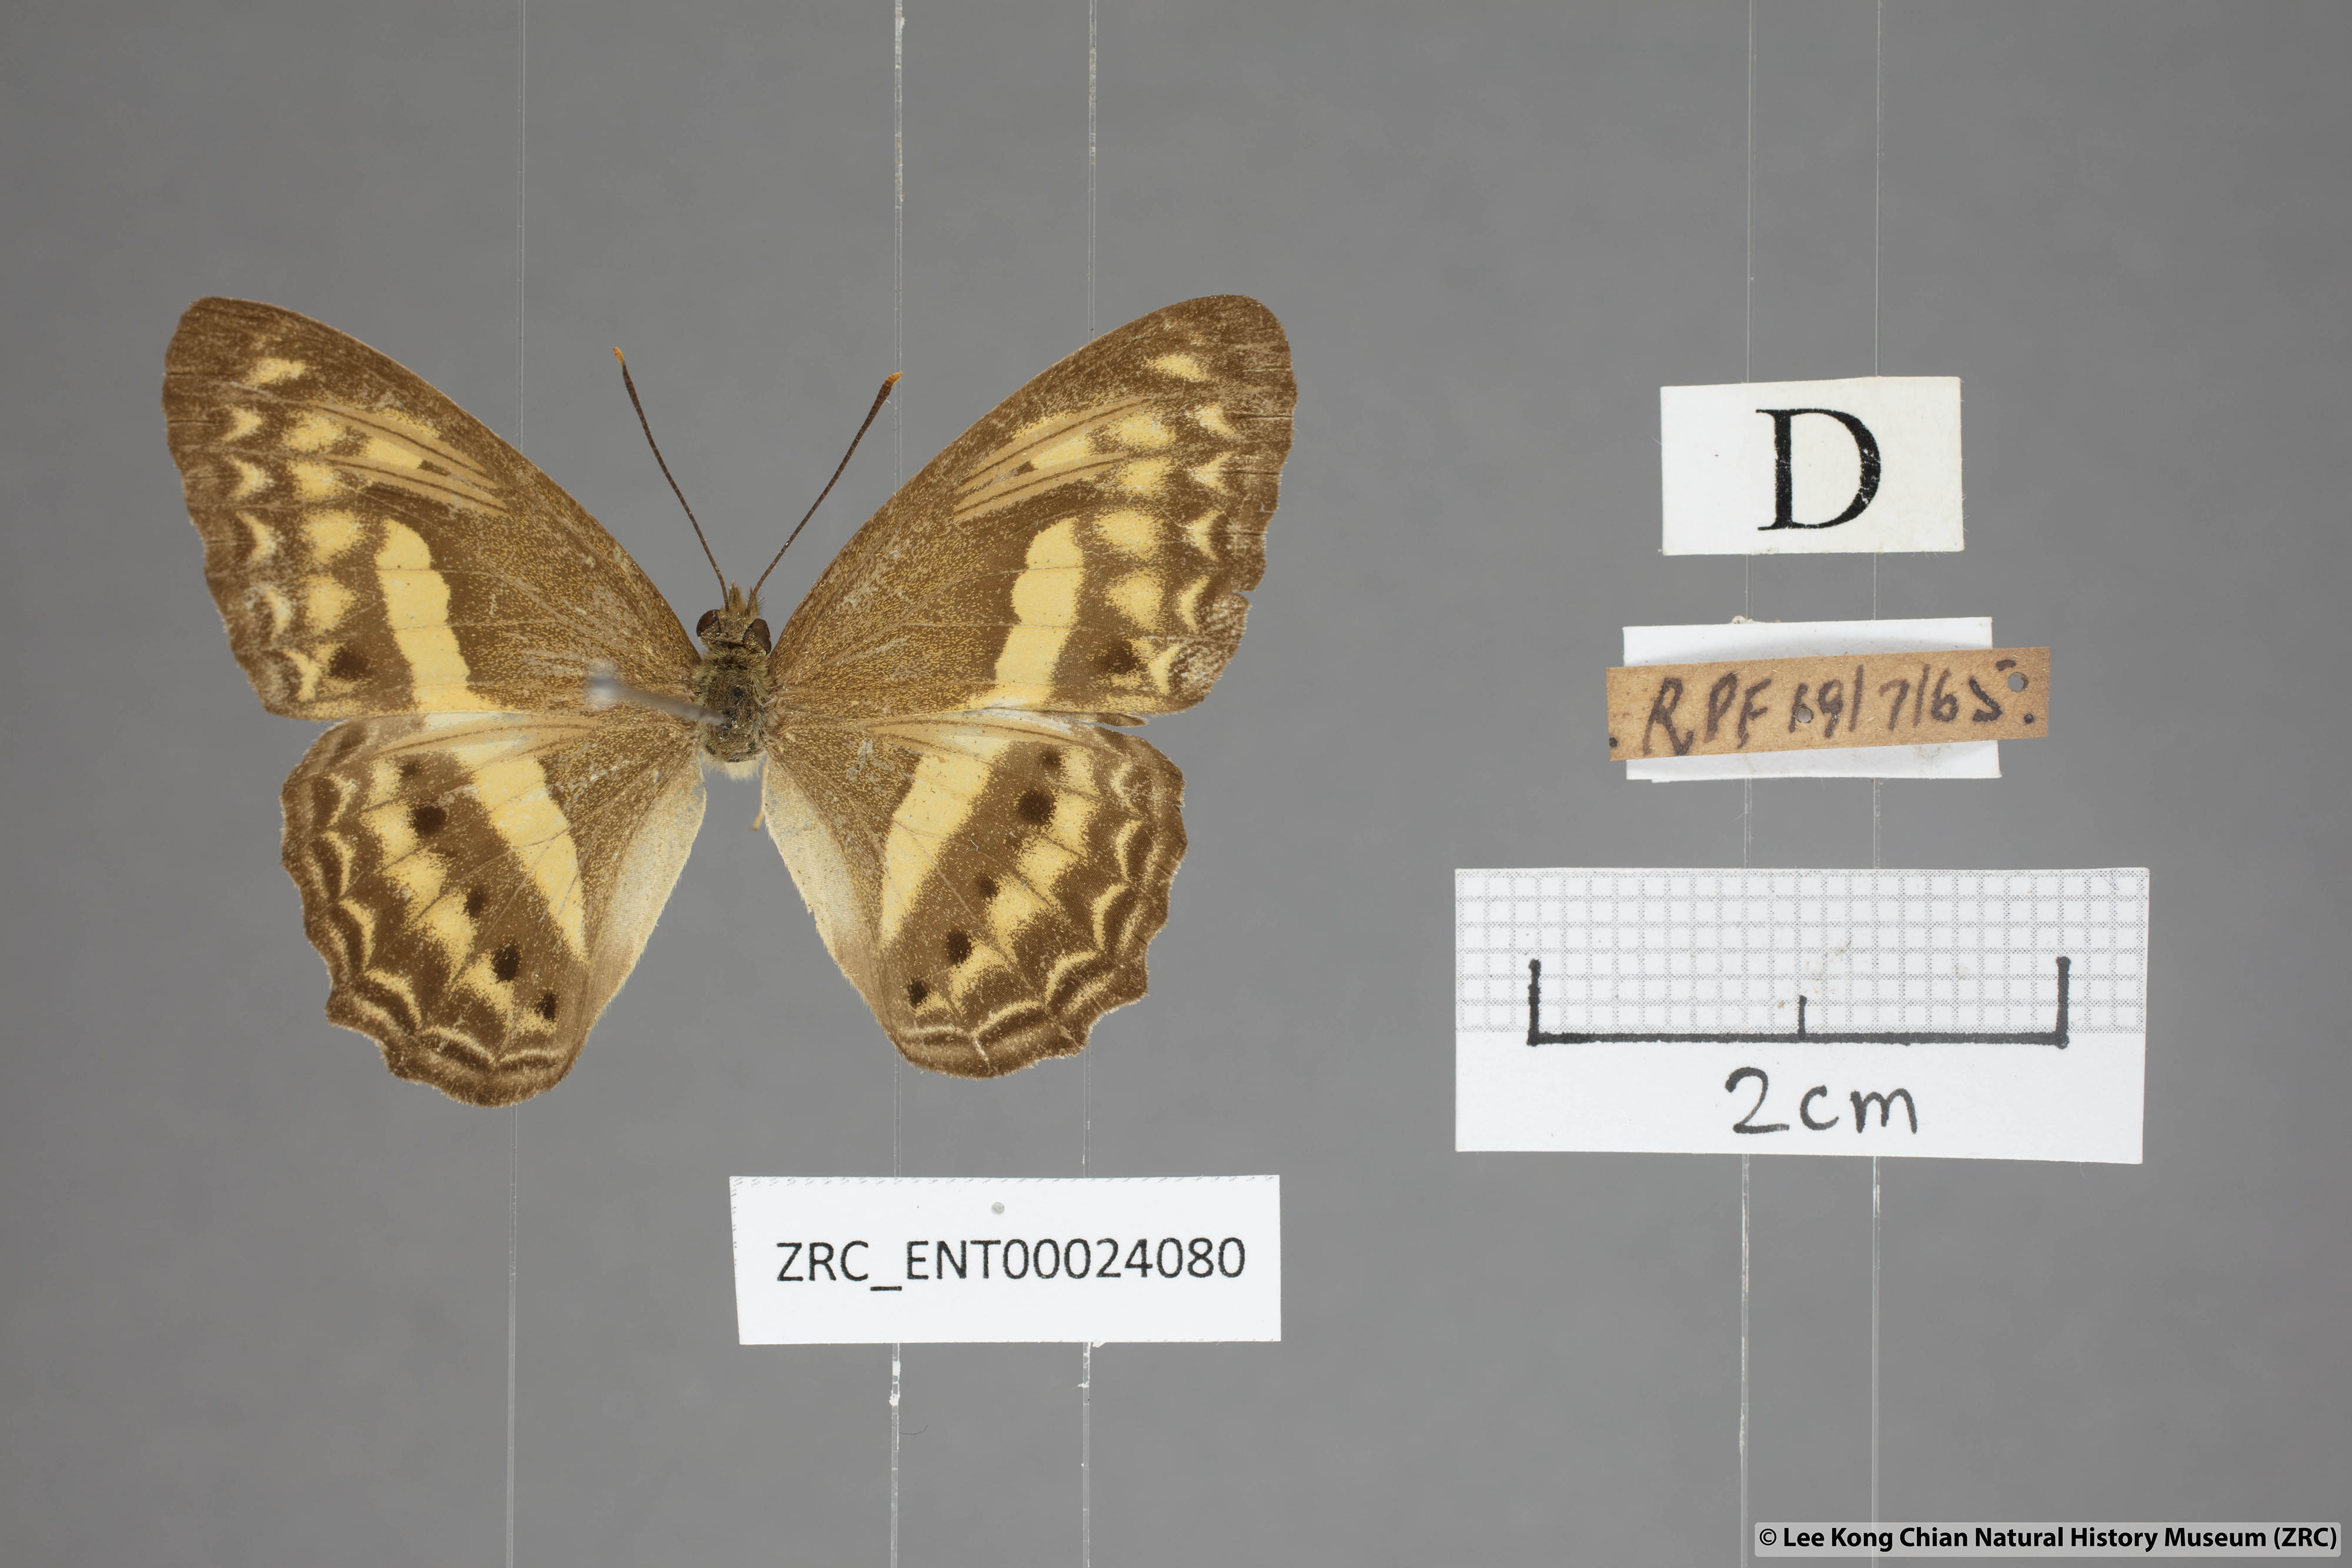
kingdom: Animalia
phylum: Arthropoda
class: Insecta
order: Lepidoptera
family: Nymphalidae
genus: Cirrochroa
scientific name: Cirrochroa fasciata
